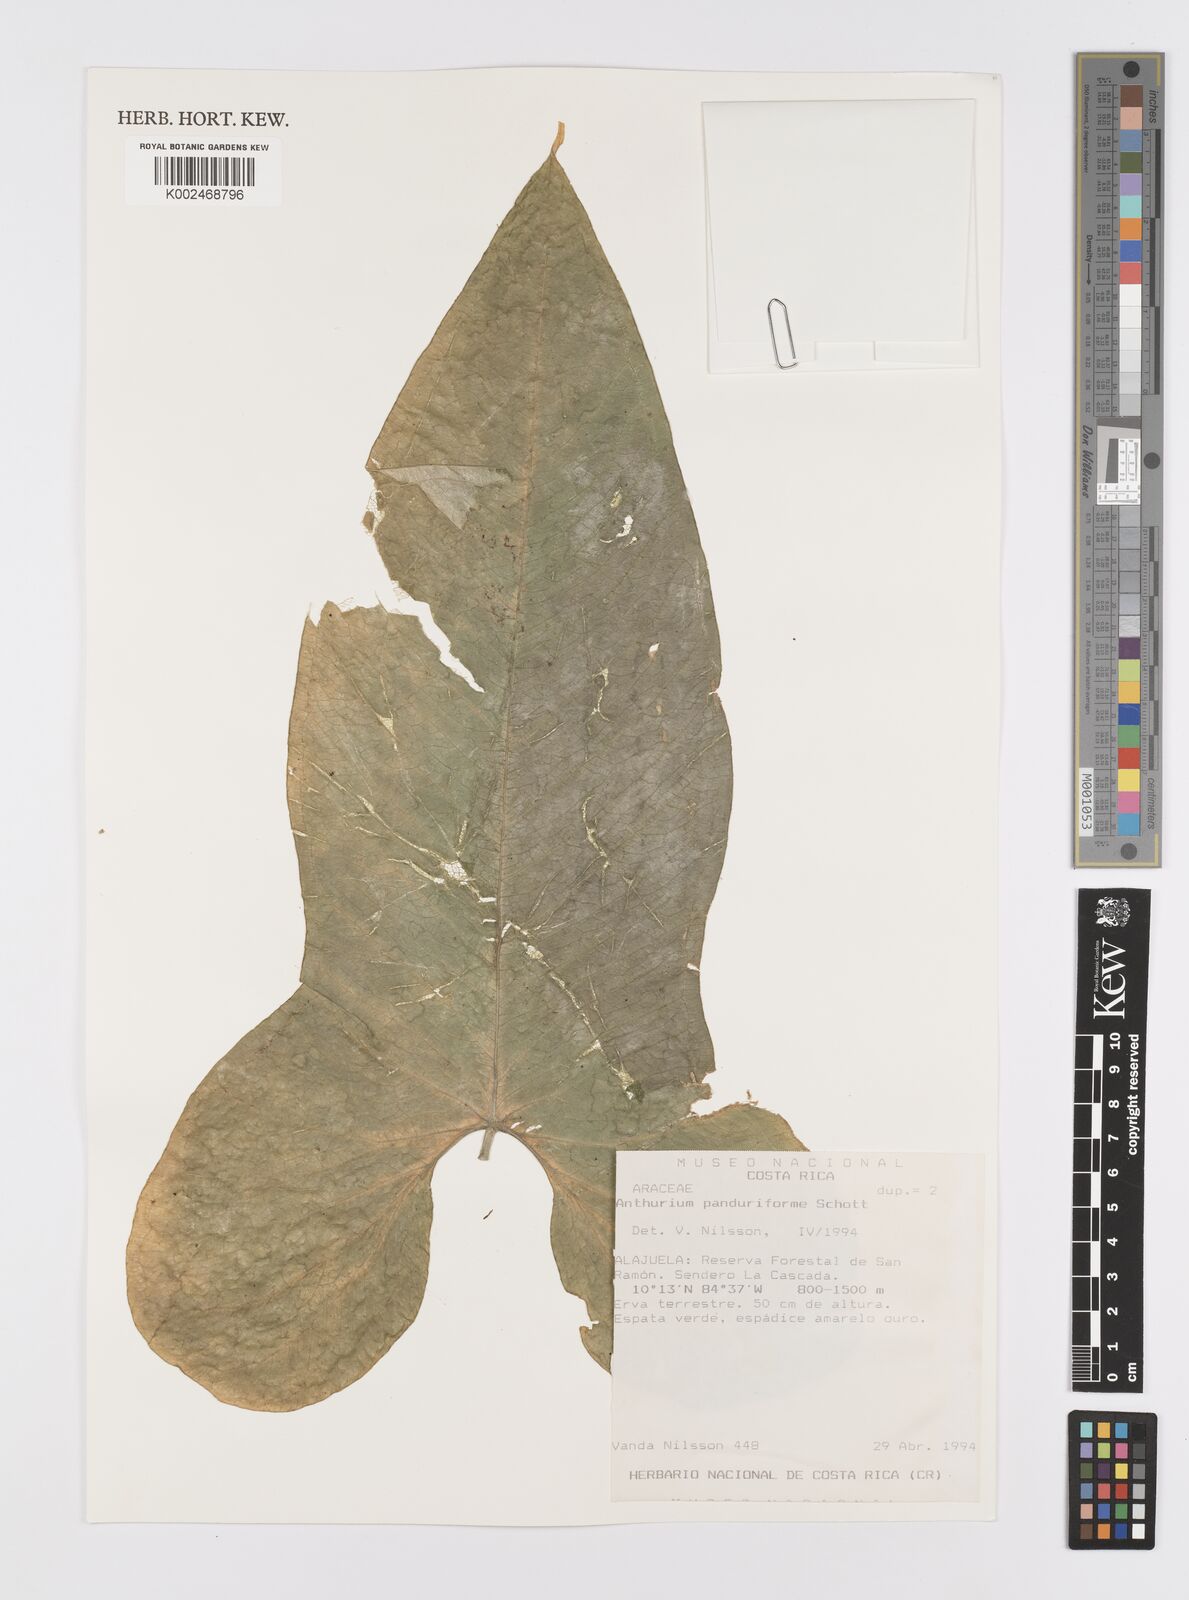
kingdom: Plantae
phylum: Tracheophyta
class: Liliopsida
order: Alismatales
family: Araceae
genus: Anthurium
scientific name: Anthurium panduriforme
